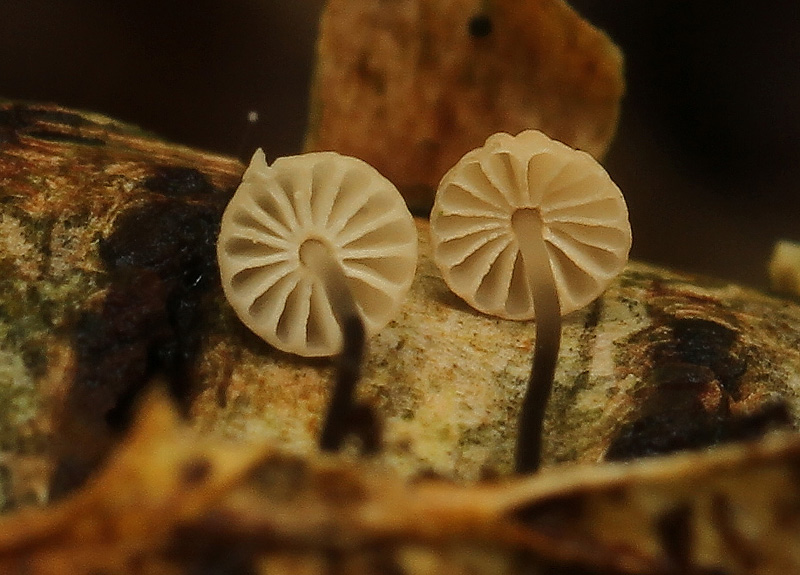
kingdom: Fungi
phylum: Basidiomycota
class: Agaricomycetes
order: Agaricales
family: Marasmiaceae
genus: Marasmius
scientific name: Marasmius bulliardii
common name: furet bruskhat
